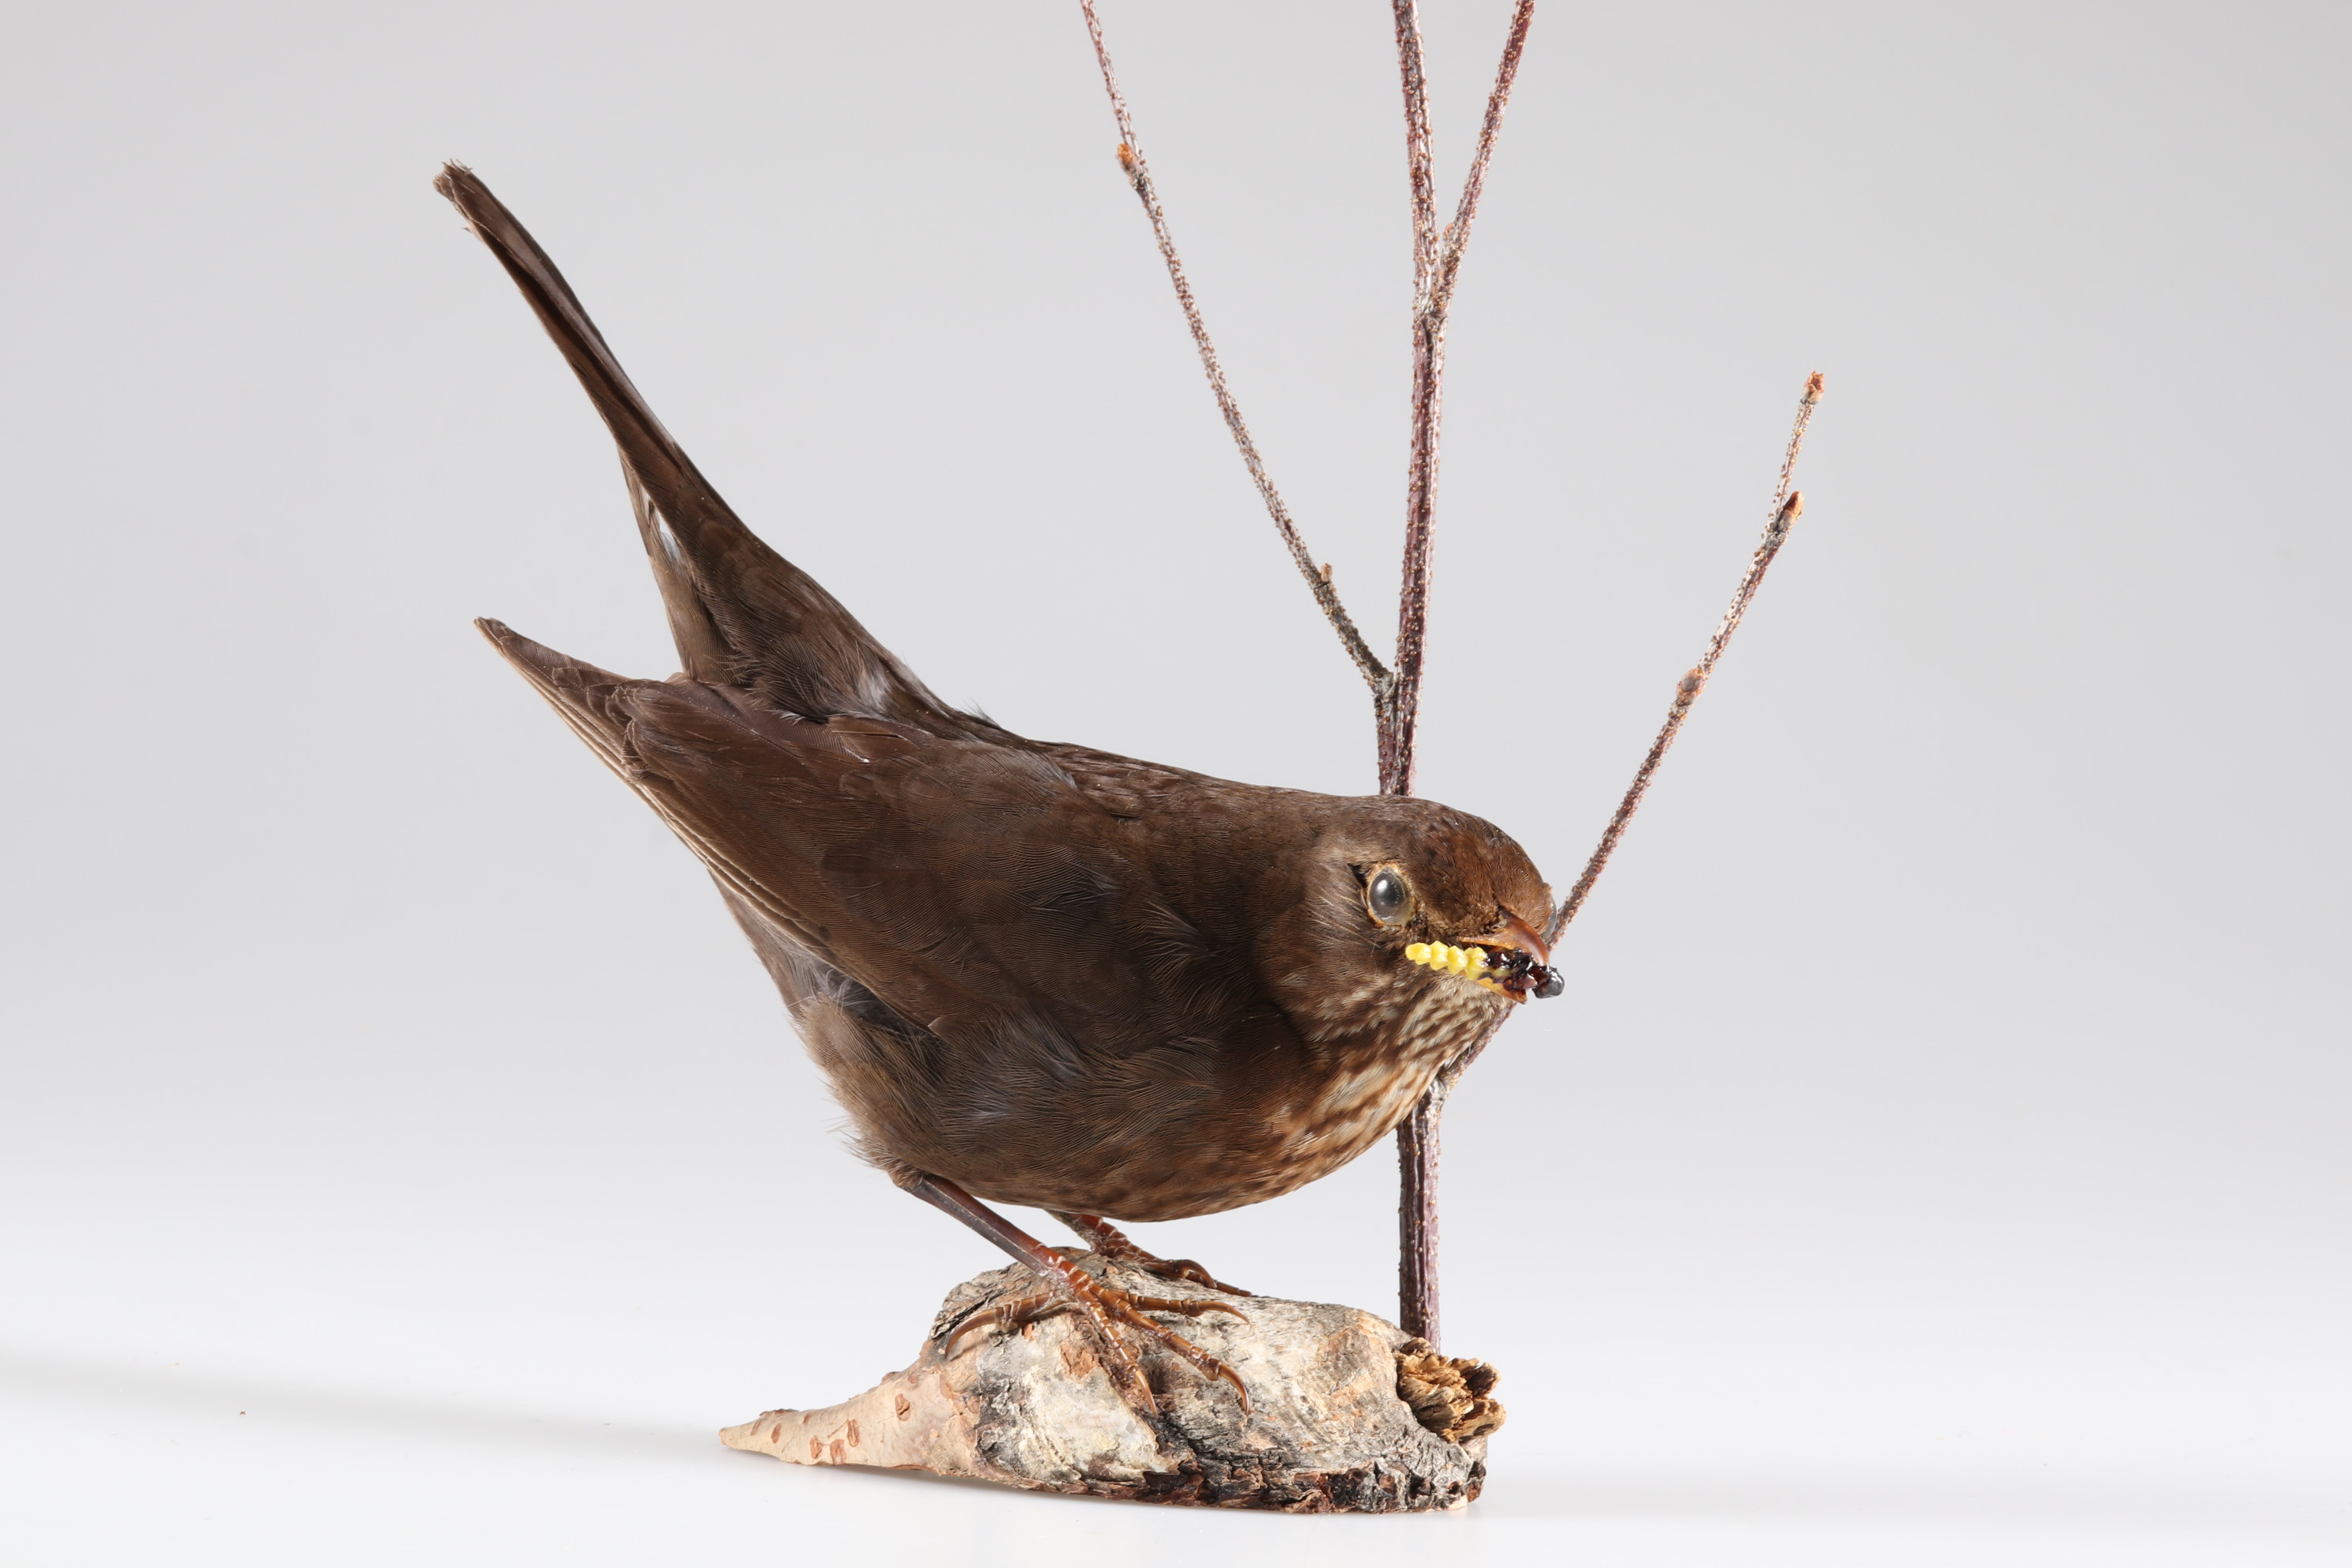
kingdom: Animalia
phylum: Chordata
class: Aves
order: Passeriformes
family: Turdidae
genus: Turdus
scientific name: Turdus merula
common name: Common blackbird
